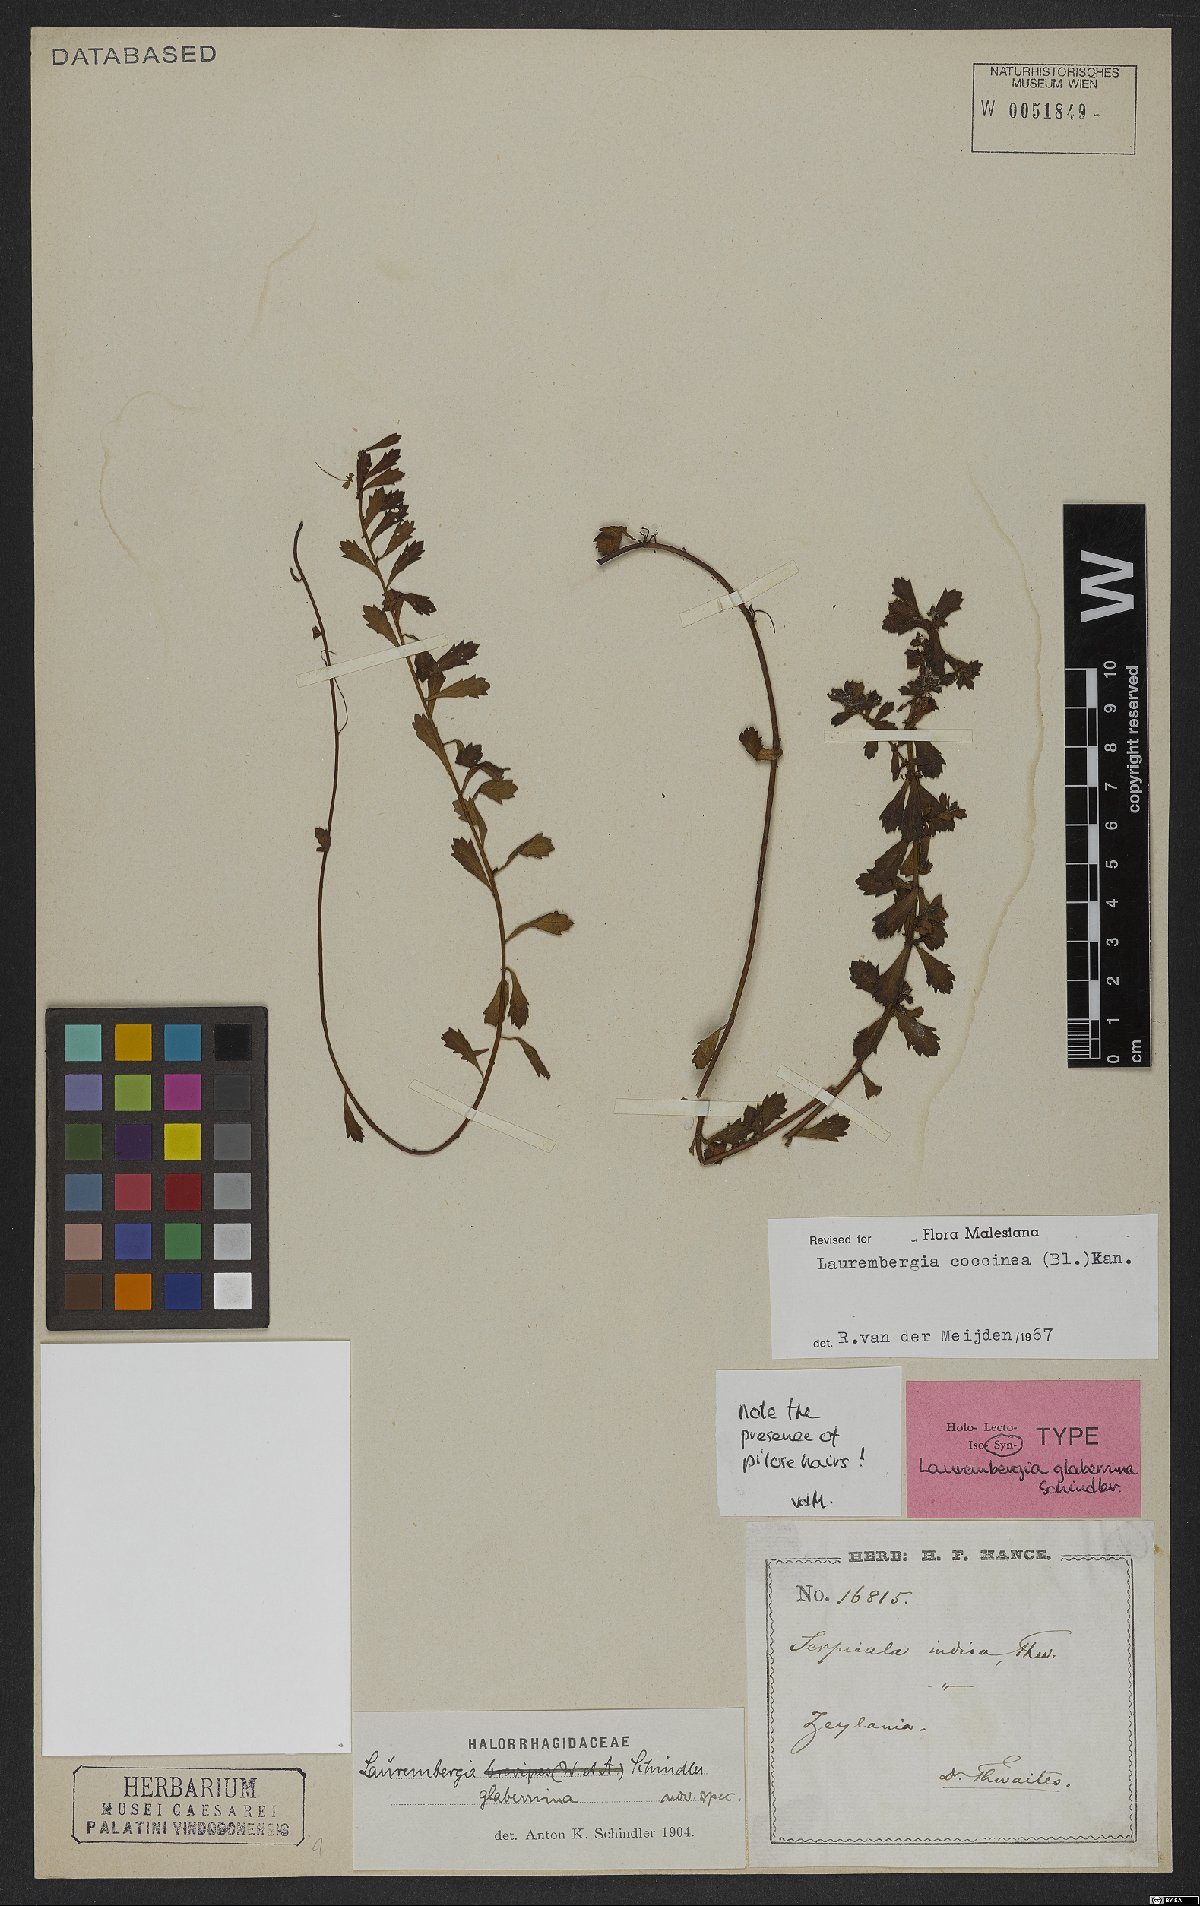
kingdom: Plantae
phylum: Tracheophyta
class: Magnoliopsida
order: Saxifragales
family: Haloragaceae
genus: Laurembergia
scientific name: Laurembergia coccinea
